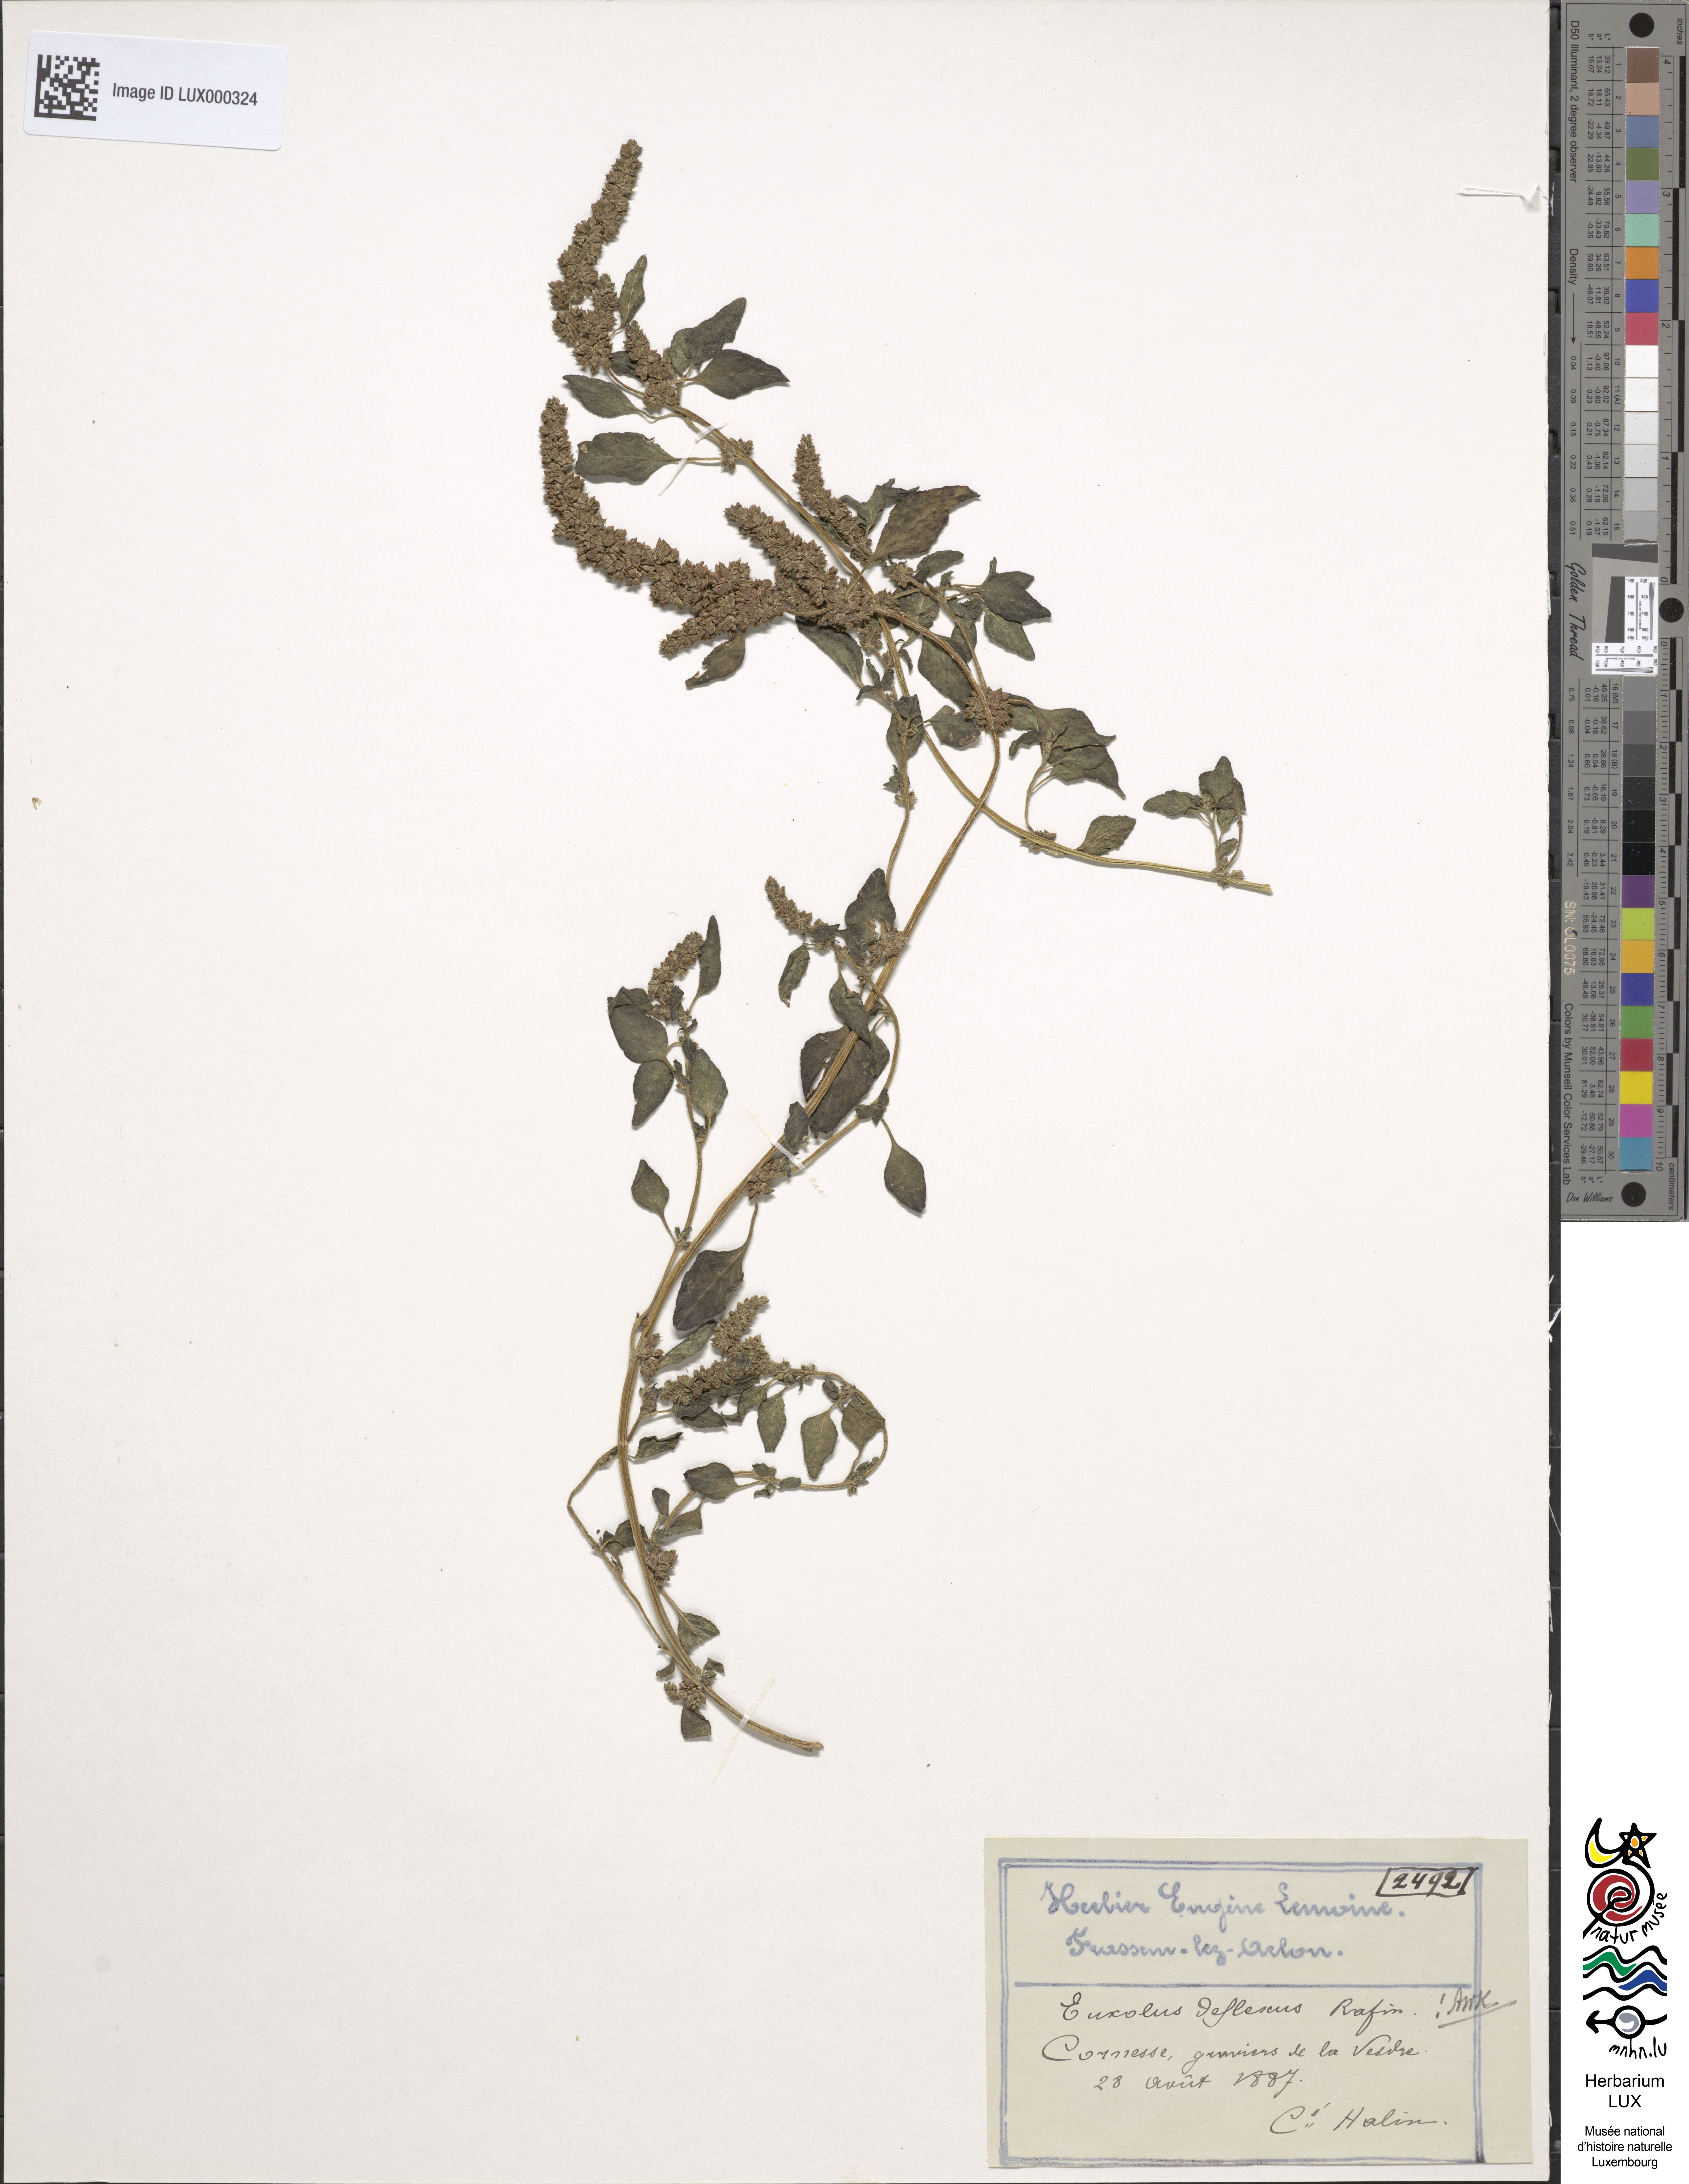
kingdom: Plantae
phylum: Tracheophyta
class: Magnoliopsida
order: Caryophyllales
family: Amaranthaceae
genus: Amaranthus
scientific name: Amaranthus deflexus
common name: Perennial pigweed
